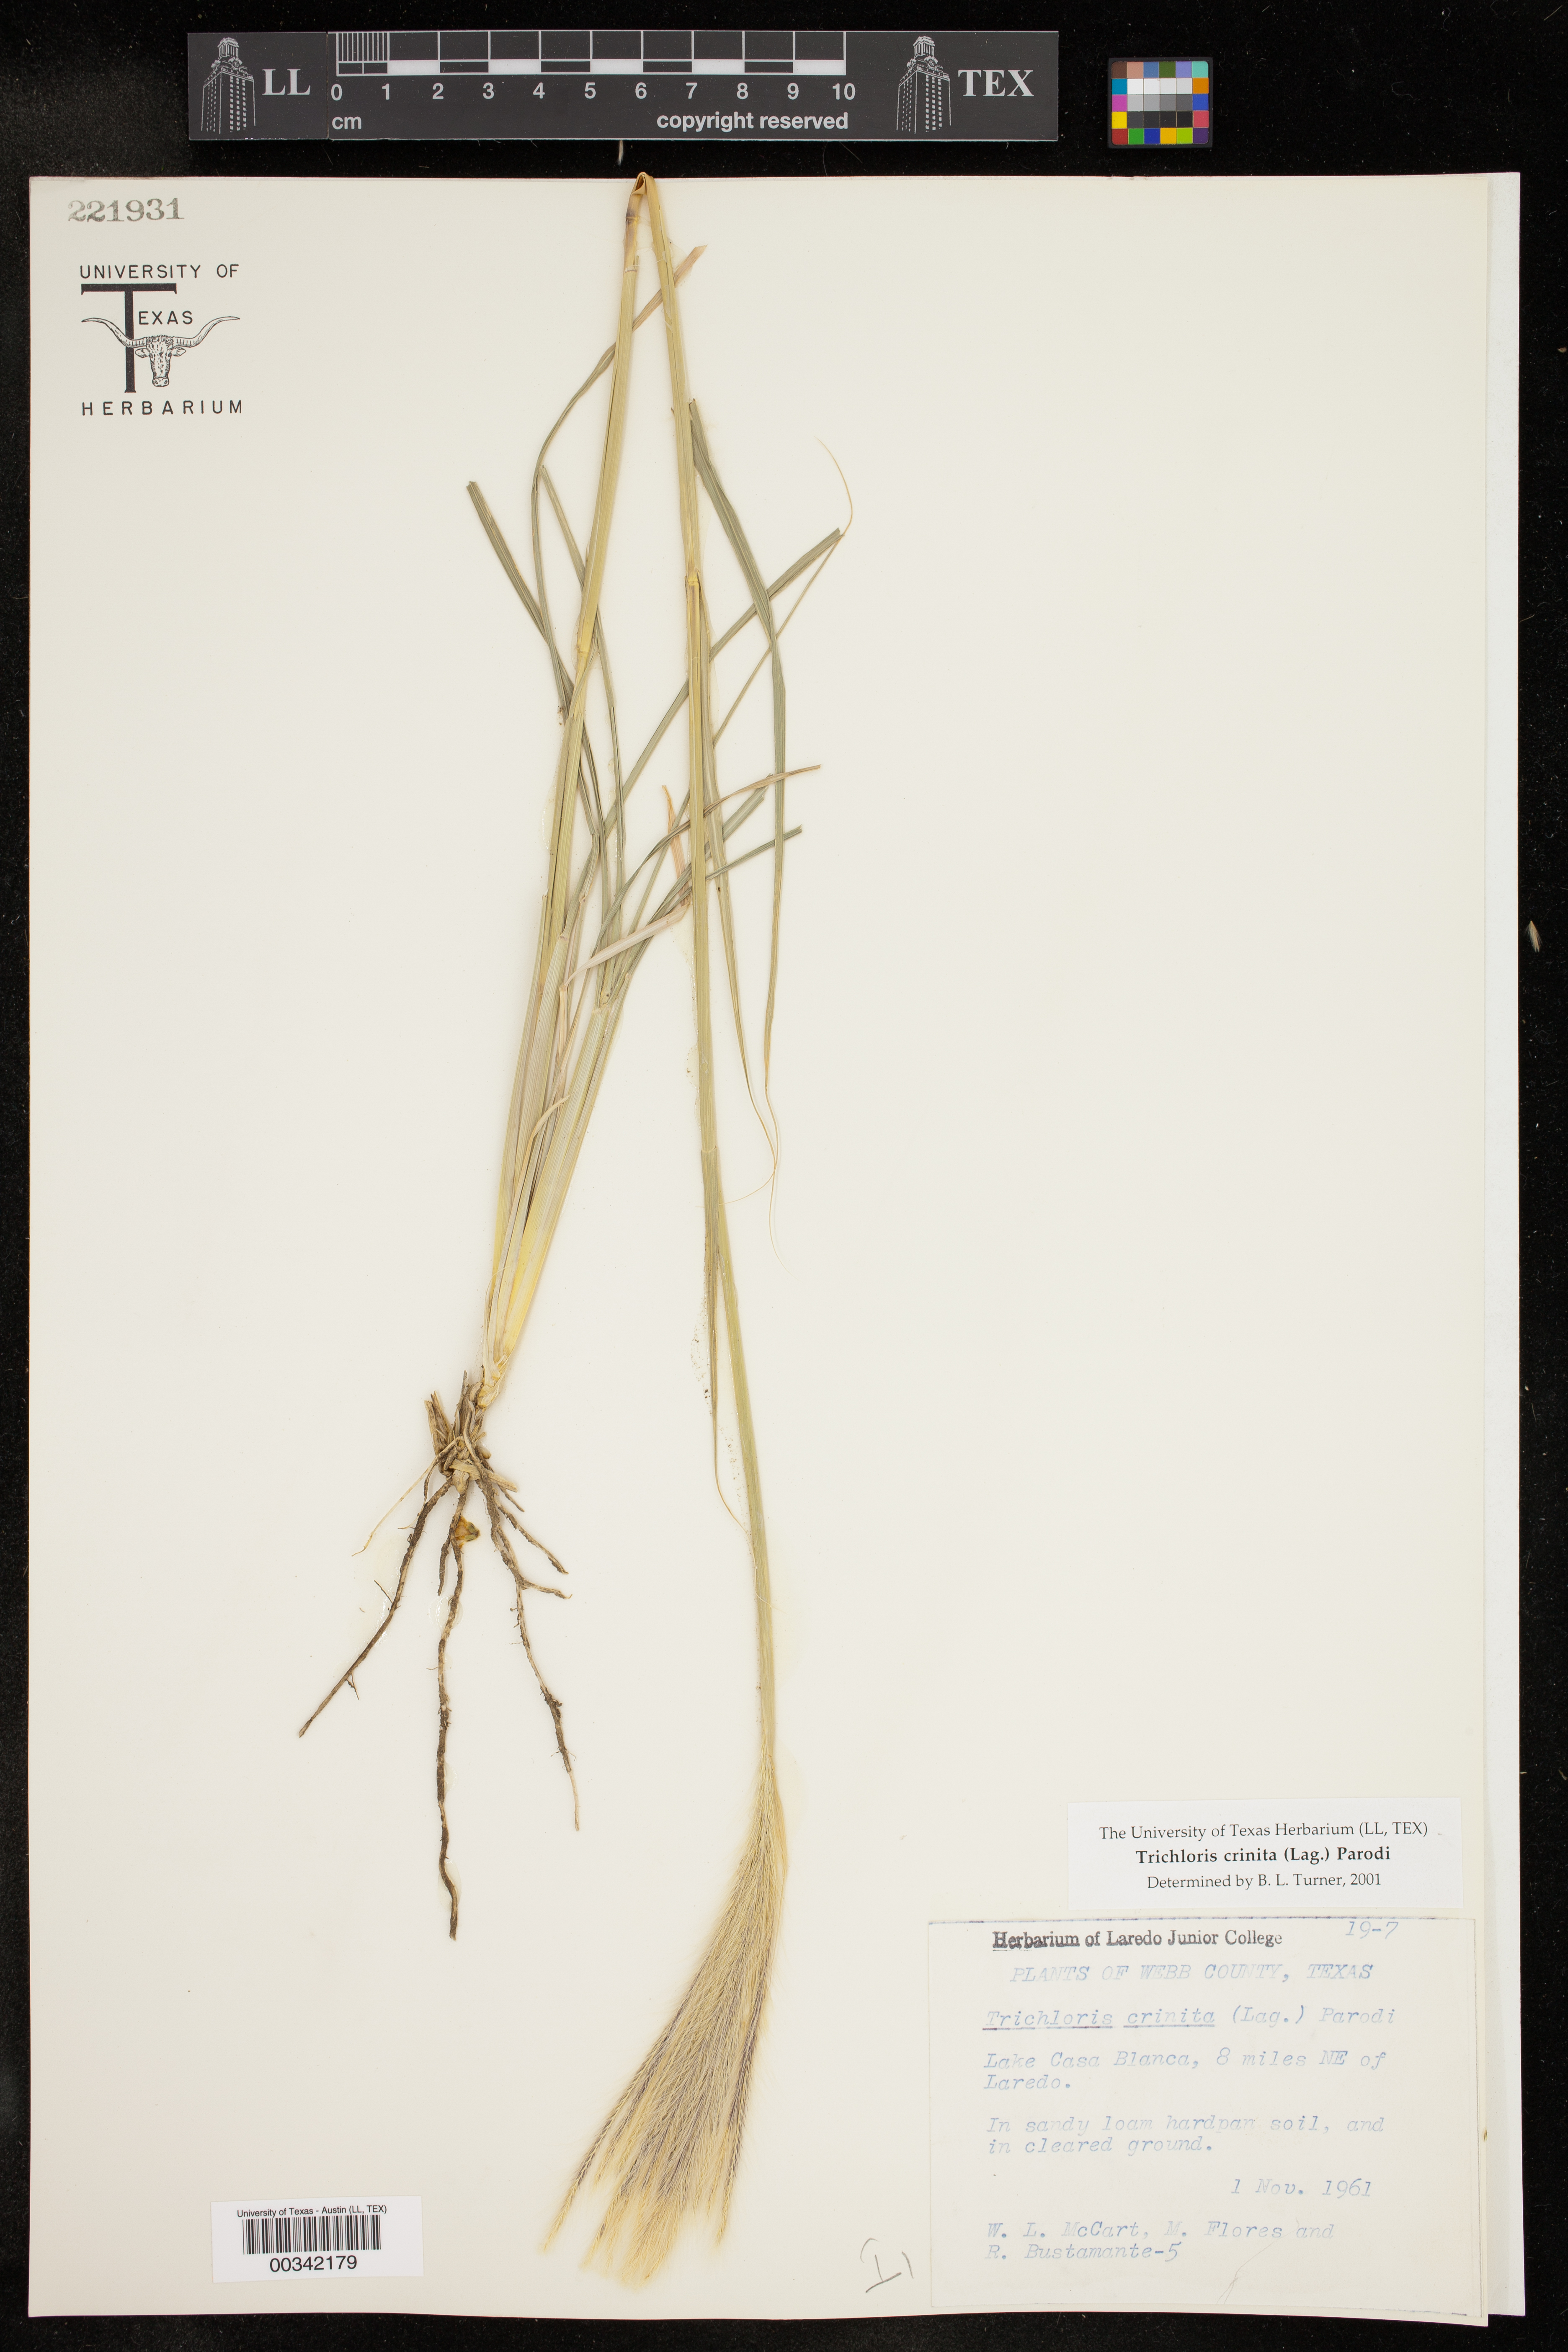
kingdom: Plantae
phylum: Tracheophyta
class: Liliopsida
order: Poales
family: Poaceae
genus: Leptochloa
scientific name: Leptochloa crinita
